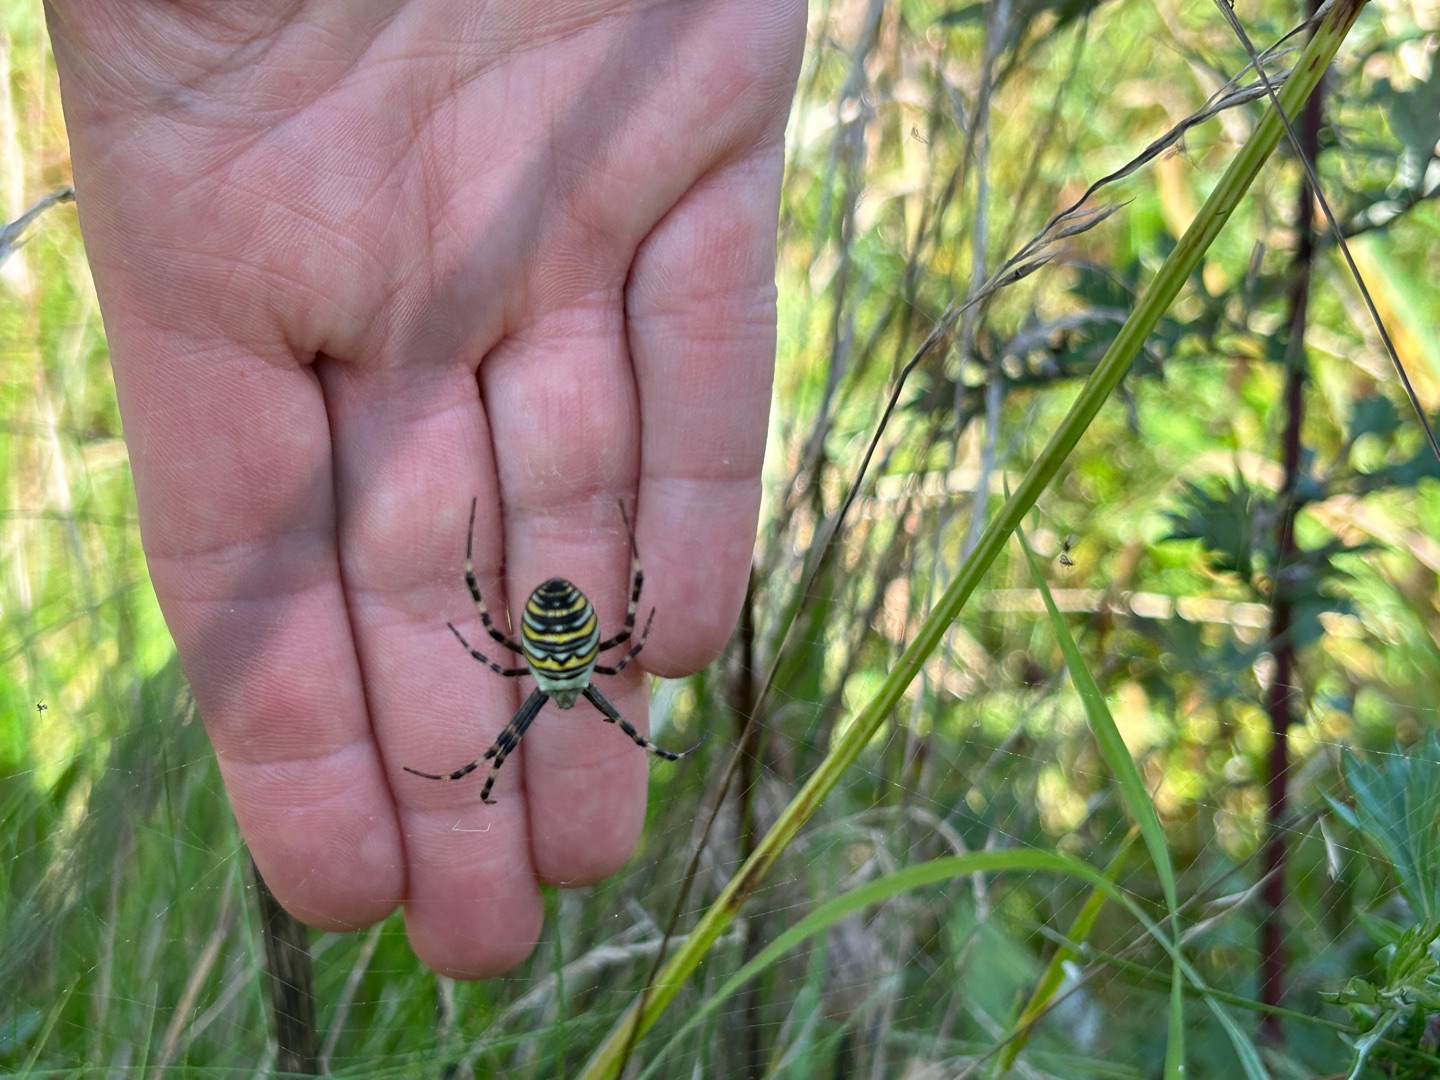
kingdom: Animalia
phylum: Arthropoda
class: Arachnida
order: Araneae
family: Araneidae
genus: Argiope
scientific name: Argiope bruennichi
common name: Hvepseedderkop
